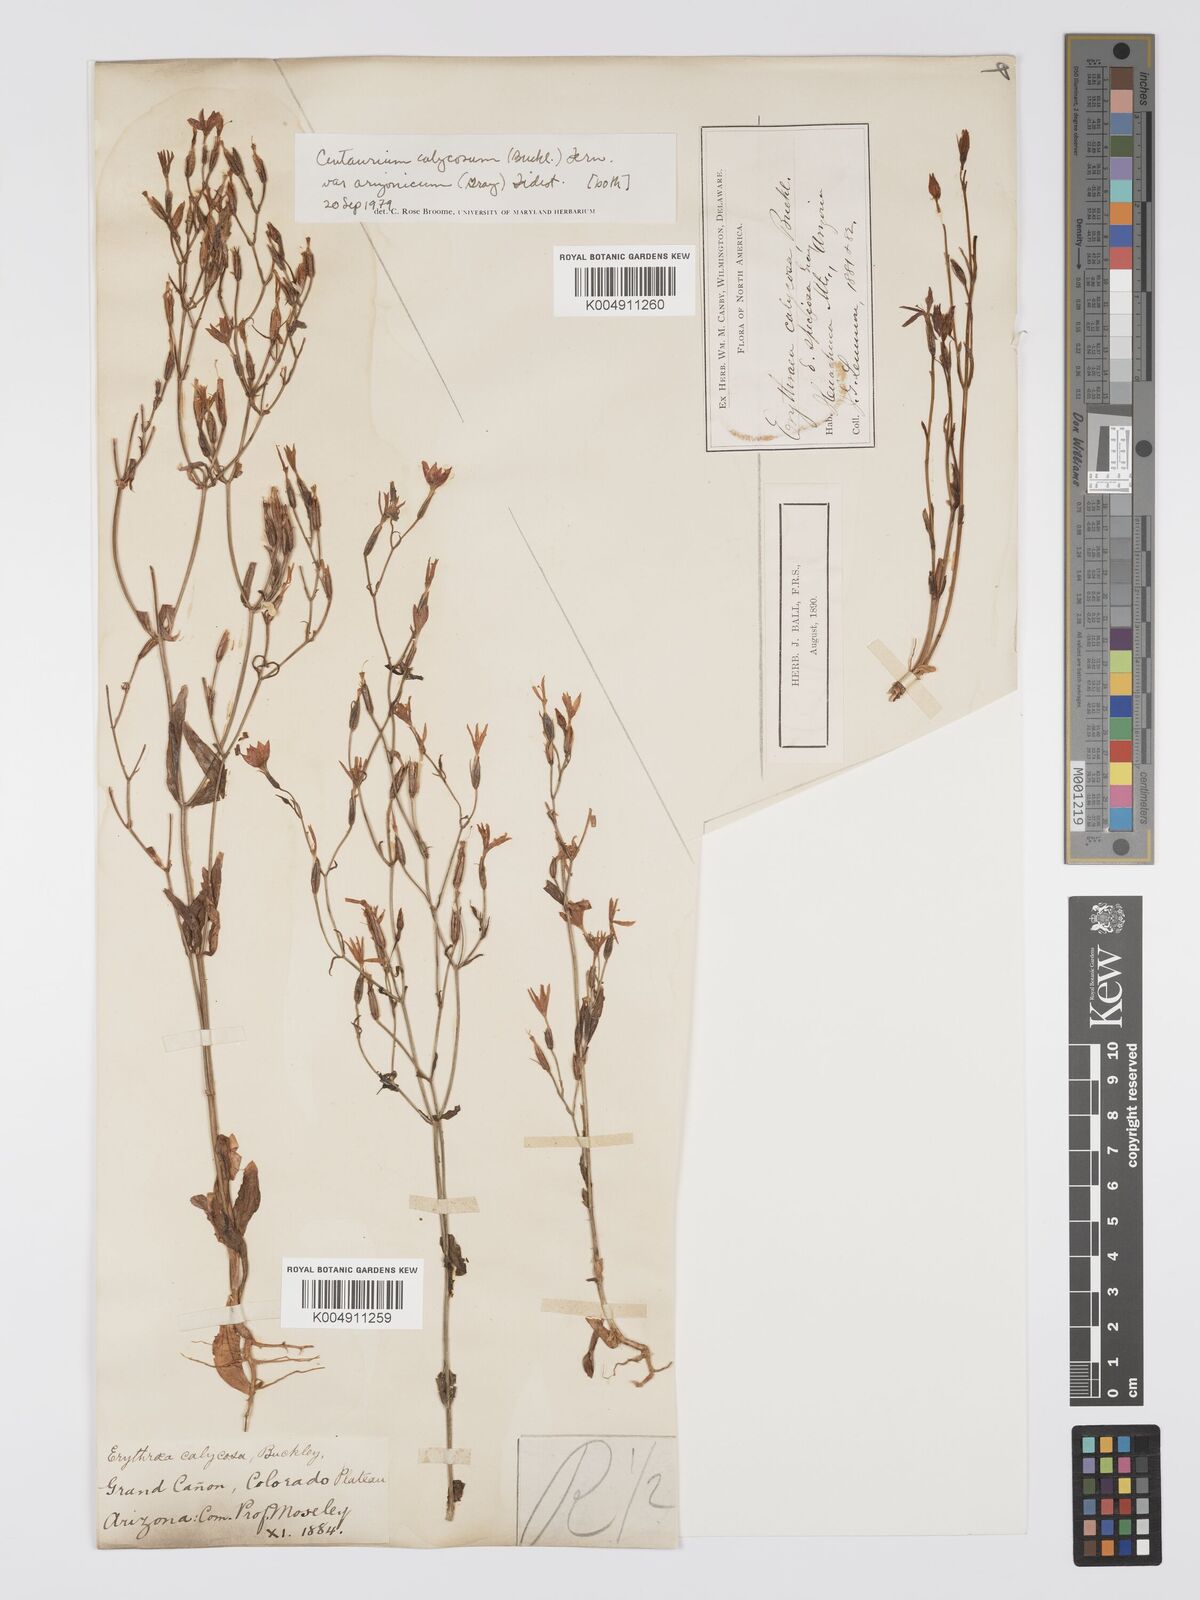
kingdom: Plantae
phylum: Tracheophyta
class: Magnoliopsida
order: Gentianales
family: Gentianaceae
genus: Sabatia
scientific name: Sabatia calycina
